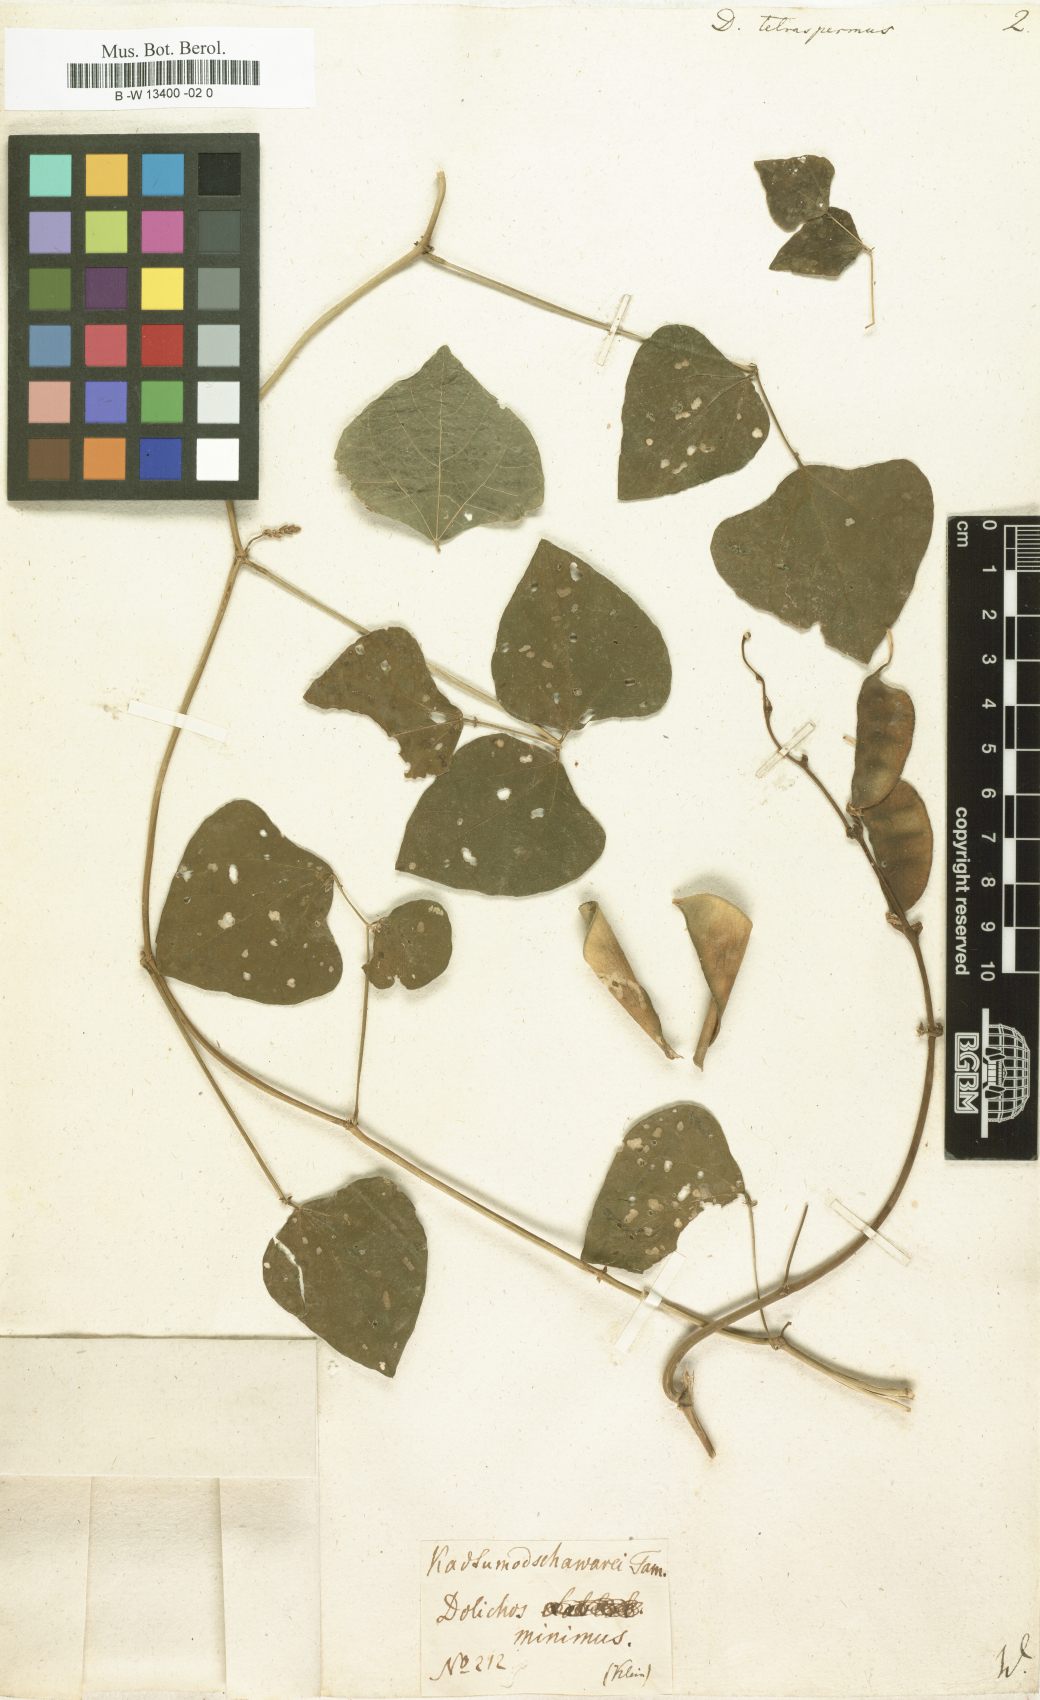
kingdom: Plantae
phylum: Tracheophyta
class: Magnoliopsida
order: Fabales
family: Fabaceae
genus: Lablab
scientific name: Lablab purpureus
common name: Lablab-bean
